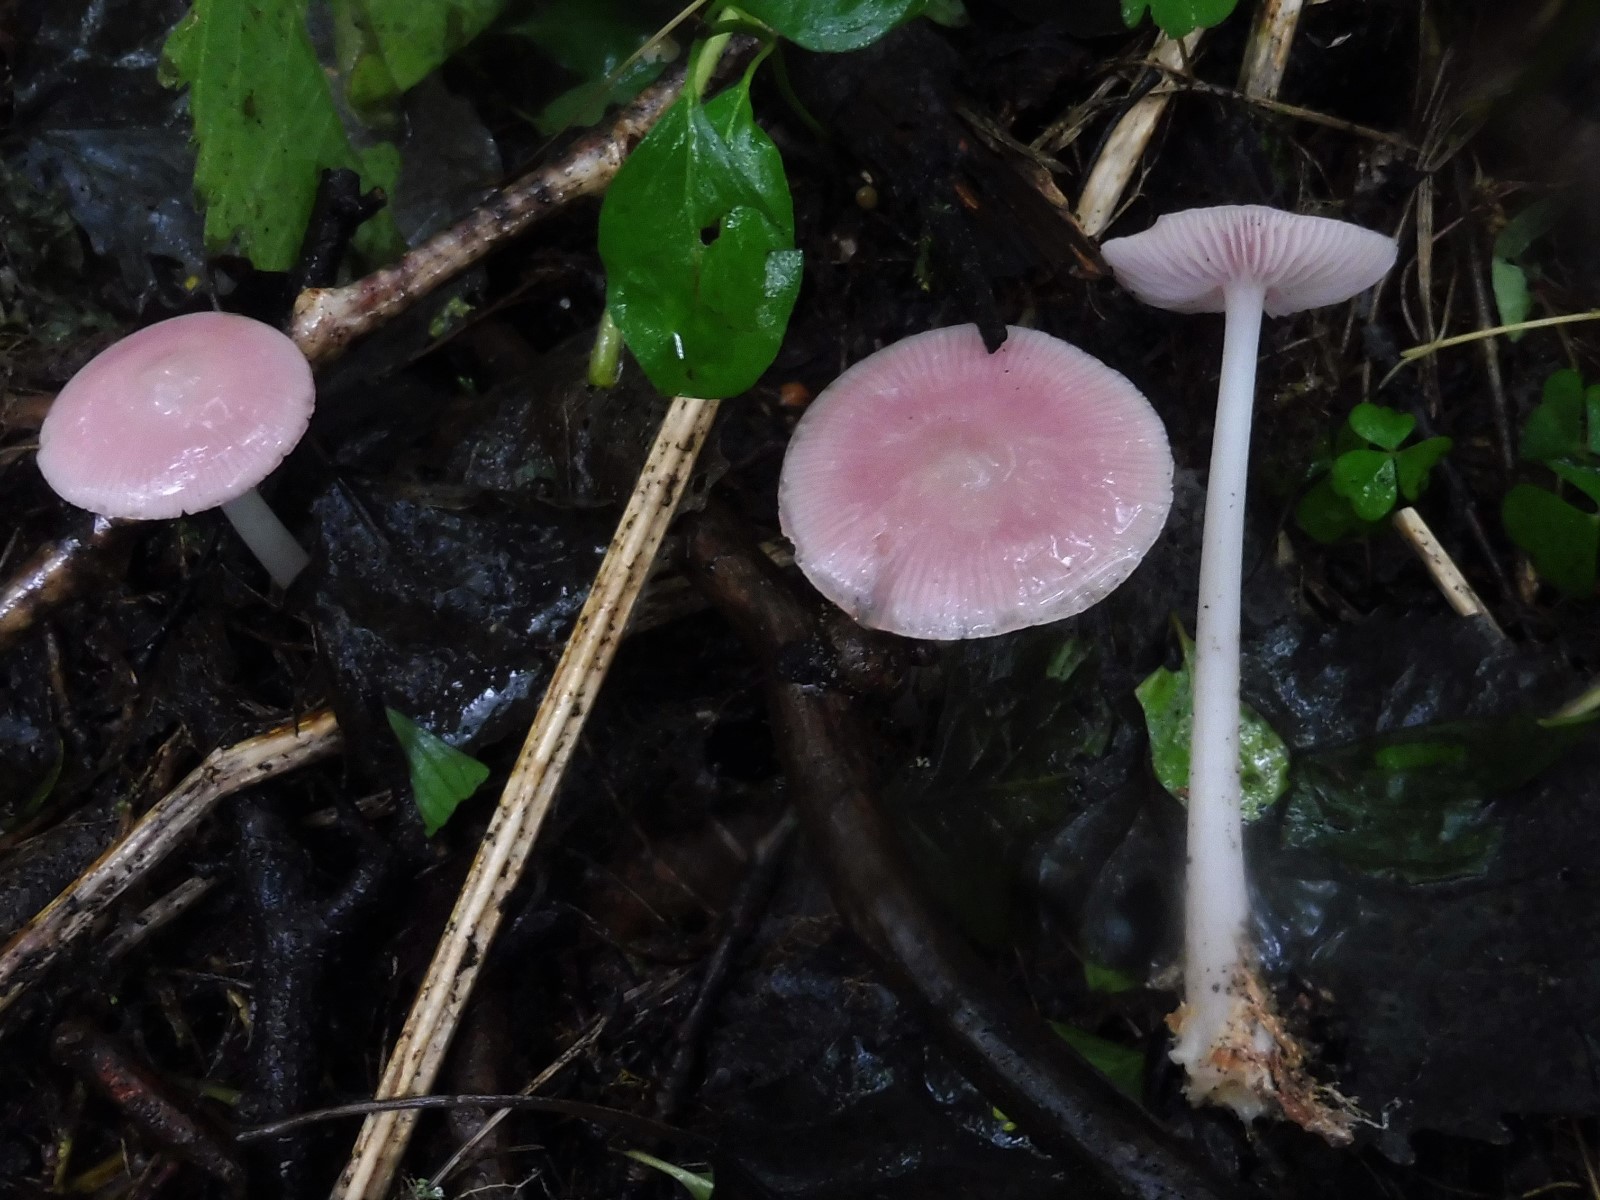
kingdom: Fungi
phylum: Basidiomycota
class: Agaricomycetes
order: Agaricales
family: Mycenaceae
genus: Mycena
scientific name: Mycena rosea
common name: rosa huesvamp
